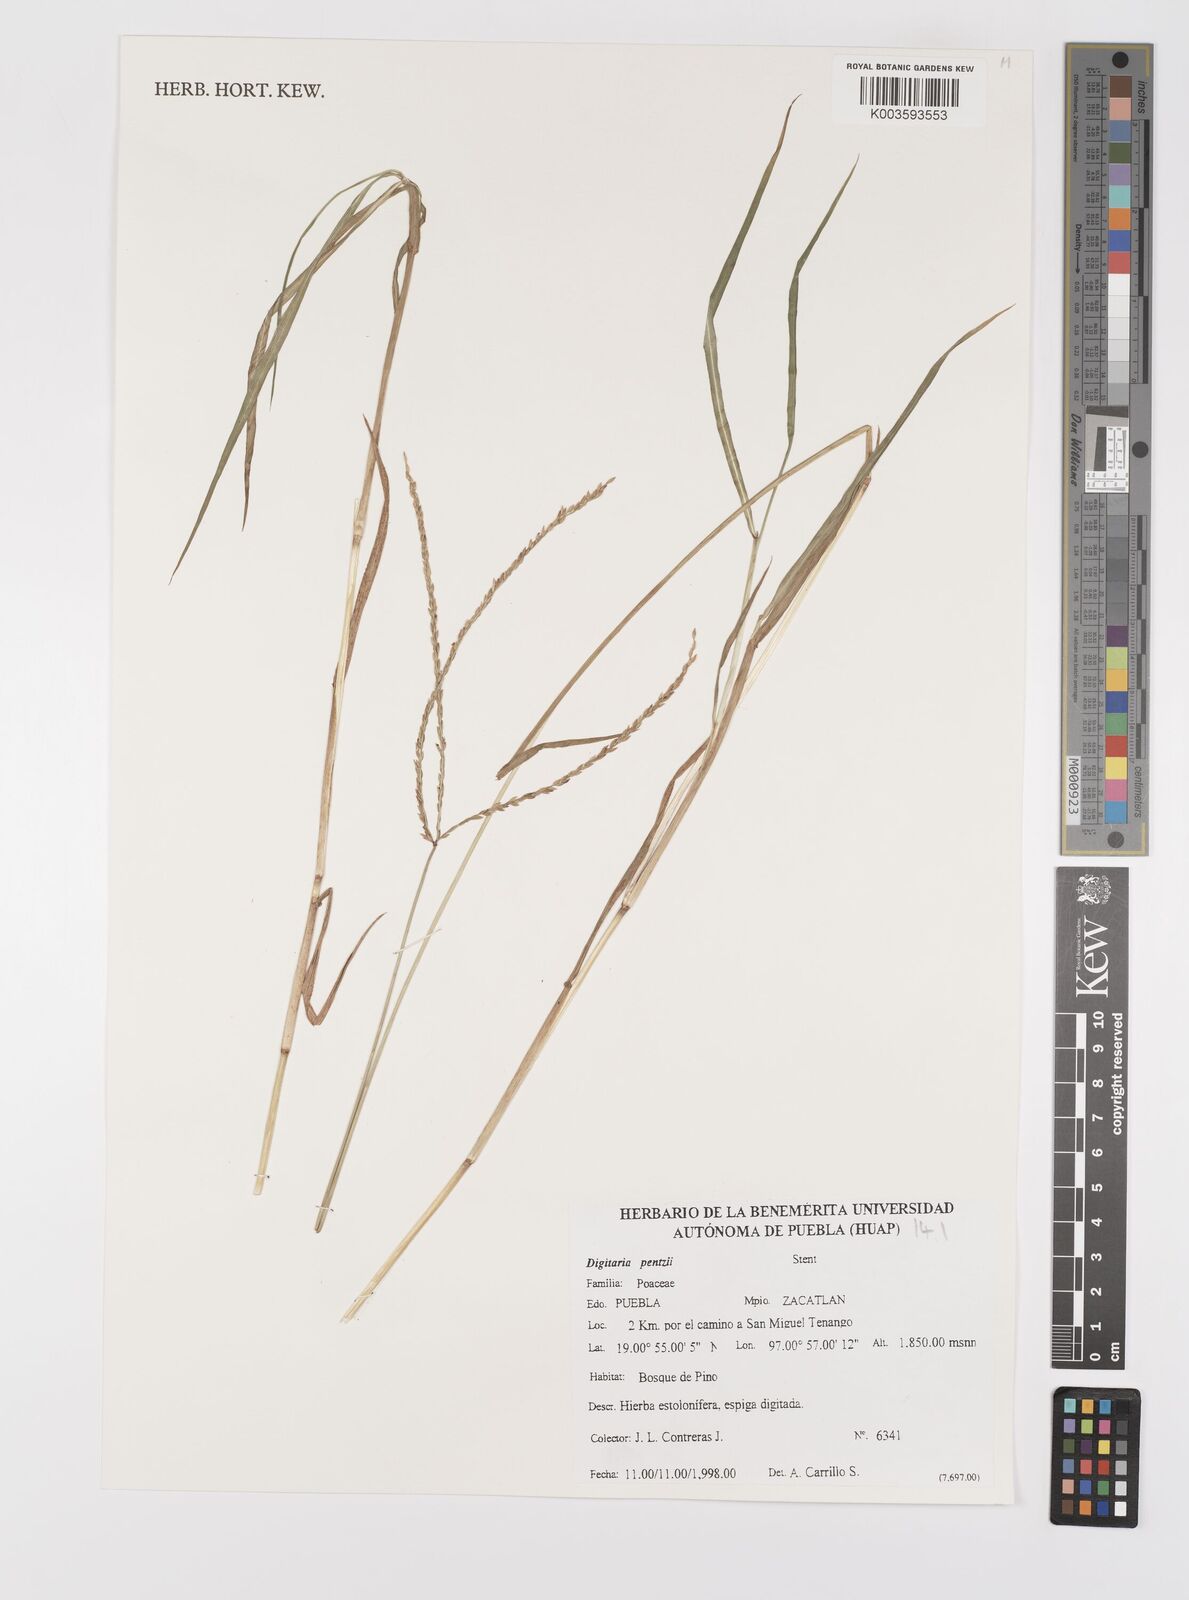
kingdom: Plantae
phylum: Tracheophyta
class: Liliopsida
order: Poales
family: Poaceae
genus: Digitaria
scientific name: Digitaria eriantha
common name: Digitgrass
